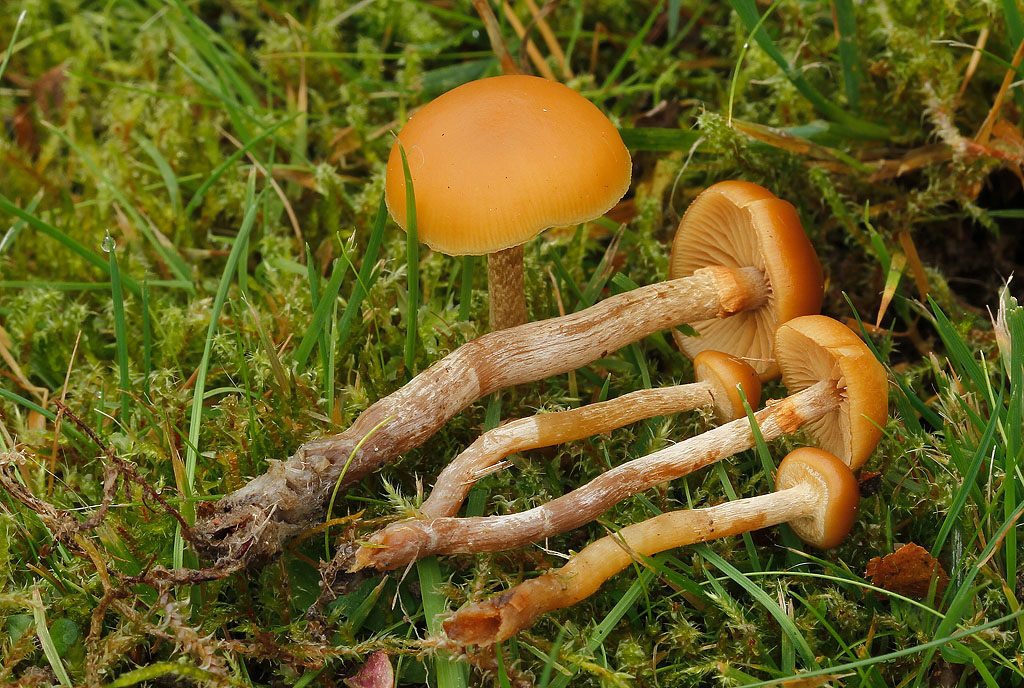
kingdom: Fungi
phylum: Basidiomycota
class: Agaricomycetes
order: Agaricales
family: Hymenogastraceae
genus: Galerina
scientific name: Galerina marginata
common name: randbæltet hjelmhat
